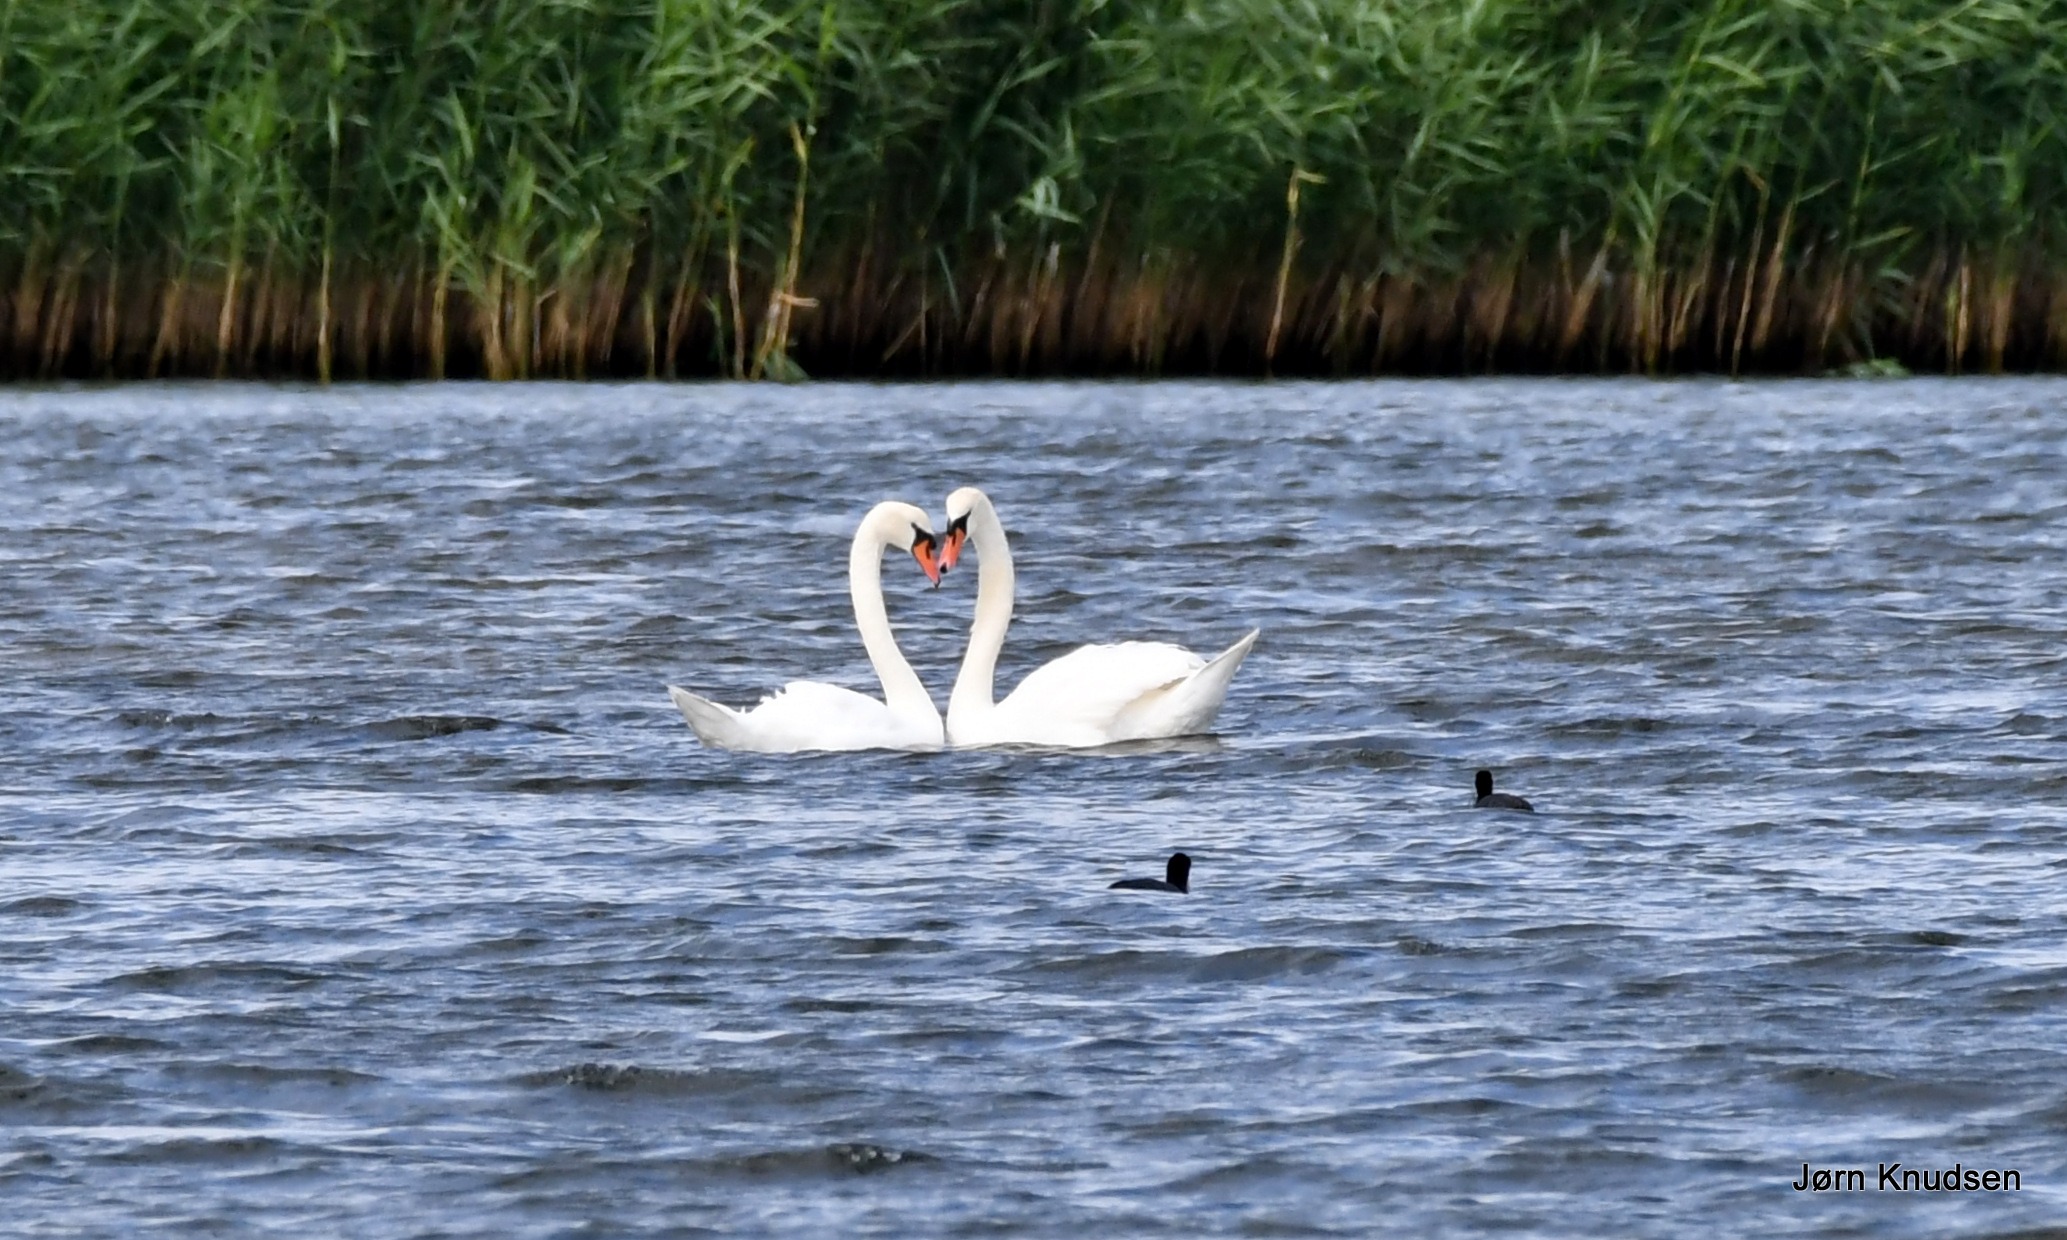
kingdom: Animalia
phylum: Chordata
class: Aves
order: Anseriformes
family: Anatidae
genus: Cygnus
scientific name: Cygnus olor
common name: Knopsvane
